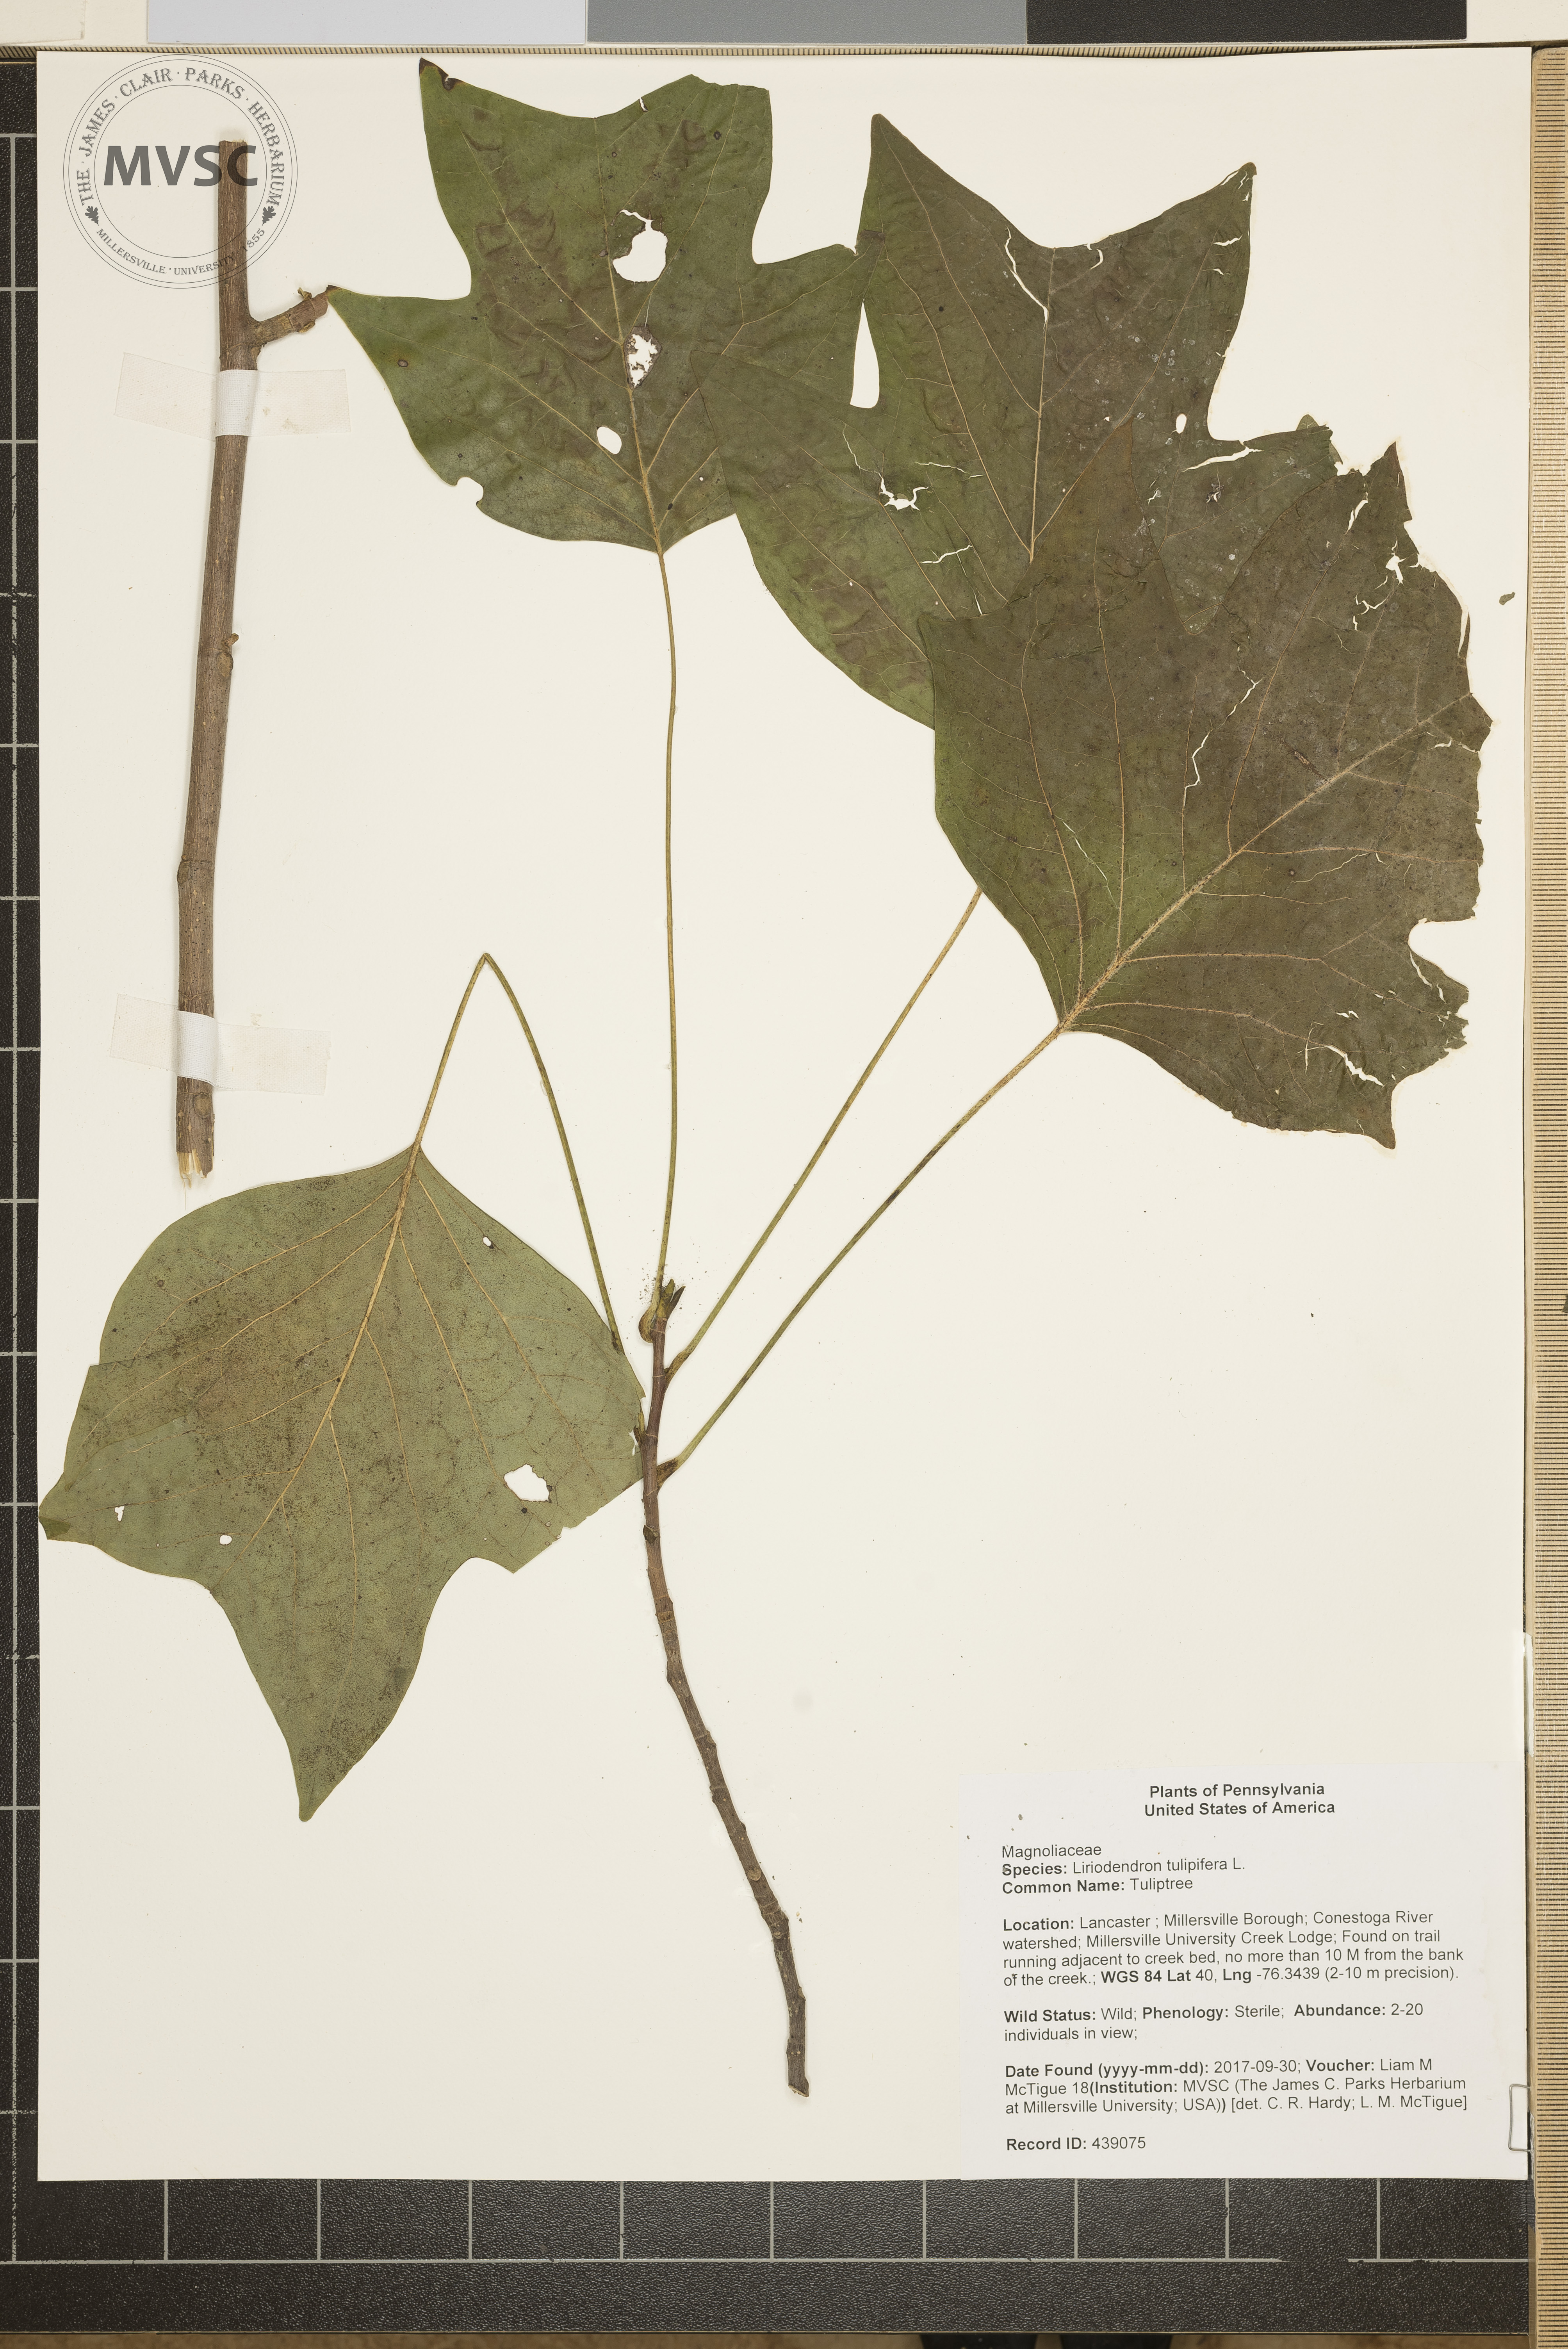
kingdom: Plantae
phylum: Tracheophyta
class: Magnoliopsida
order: Magnoliales
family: Magnoliaceae
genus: Liriodendron
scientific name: Liriodendron tulipifera
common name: Tuliptree
